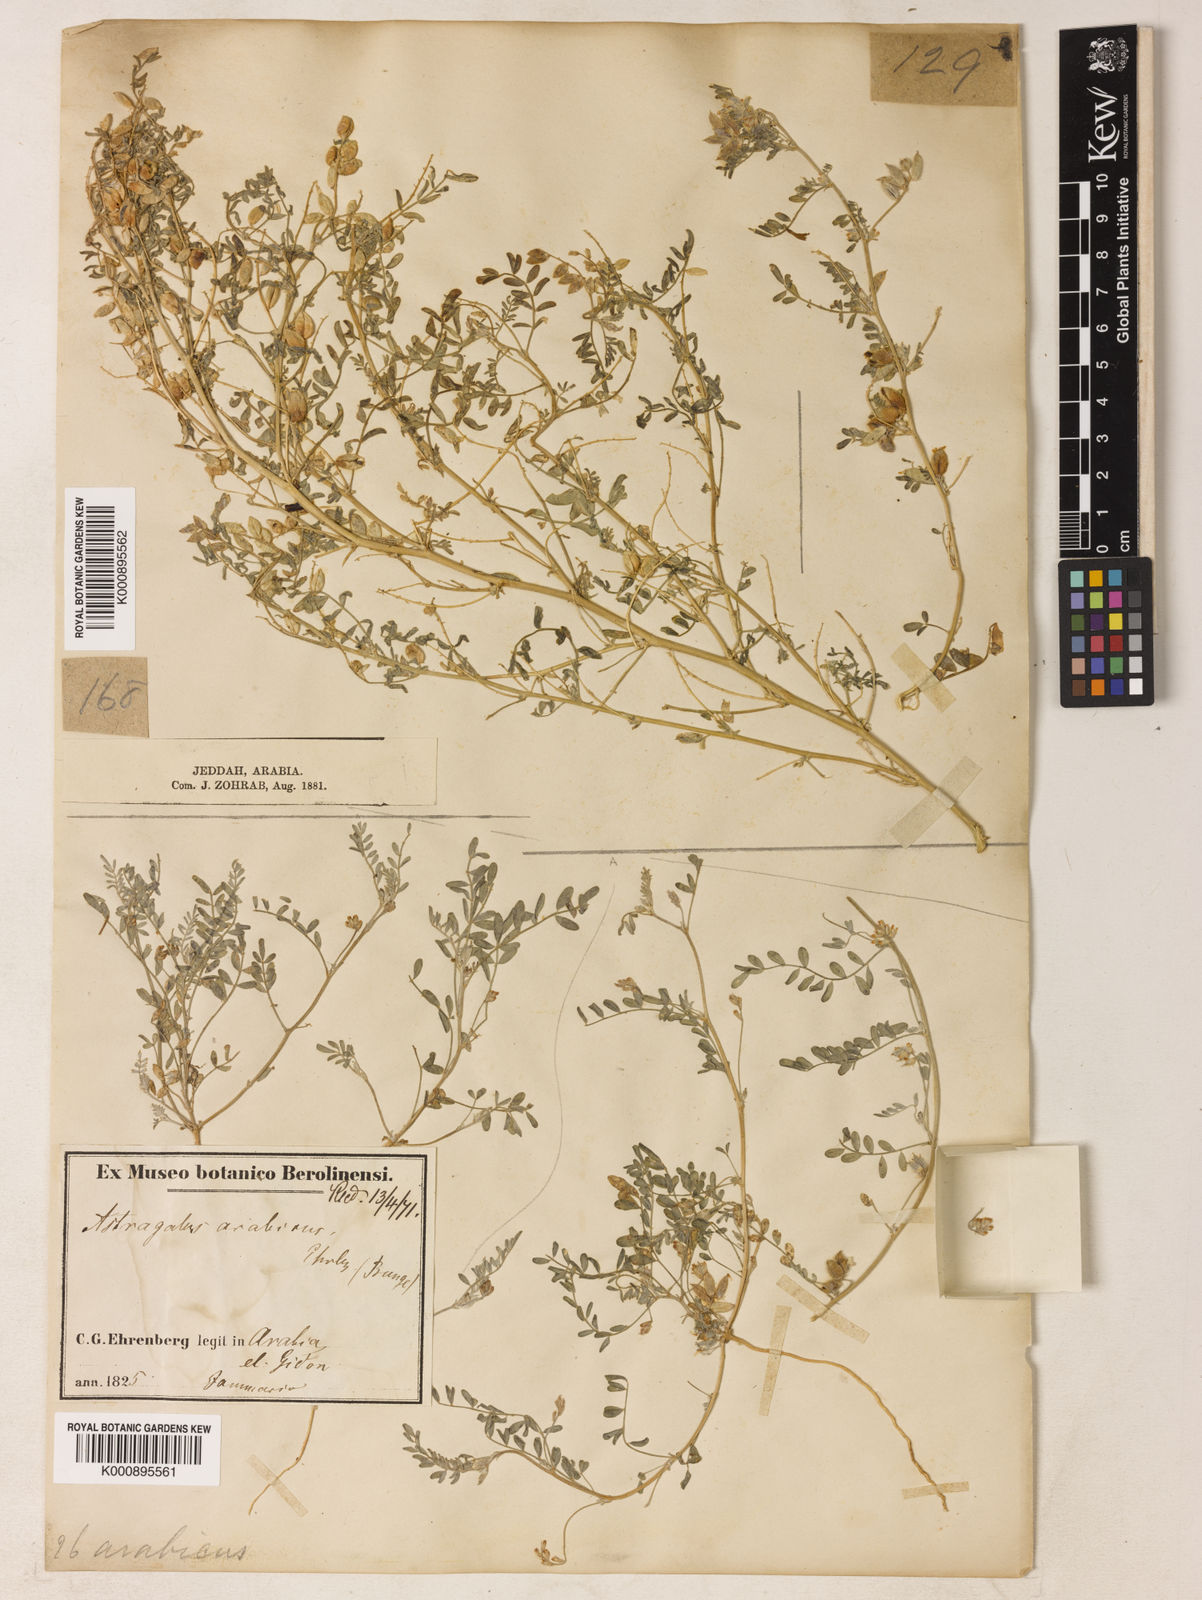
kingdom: Plantae
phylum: Tracheophyta
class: Magnoliopsida
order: Fabales
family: Fabaceae
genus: Astragalus
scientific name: Astragalus vogelii
